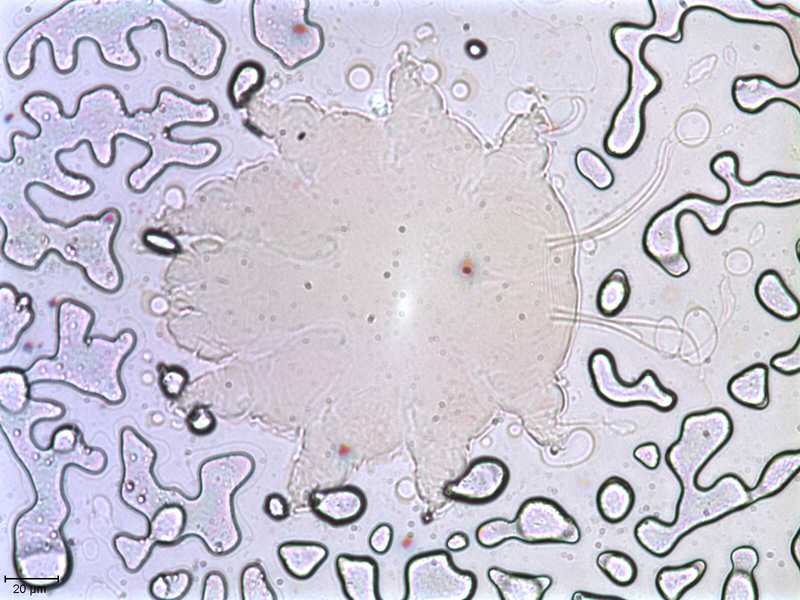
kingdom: Animalia
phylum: Arthropoda
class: Arachnida
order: Trombidiformes
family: Psorergatidae
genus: Psorobia
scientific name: Psorobia mustelae
